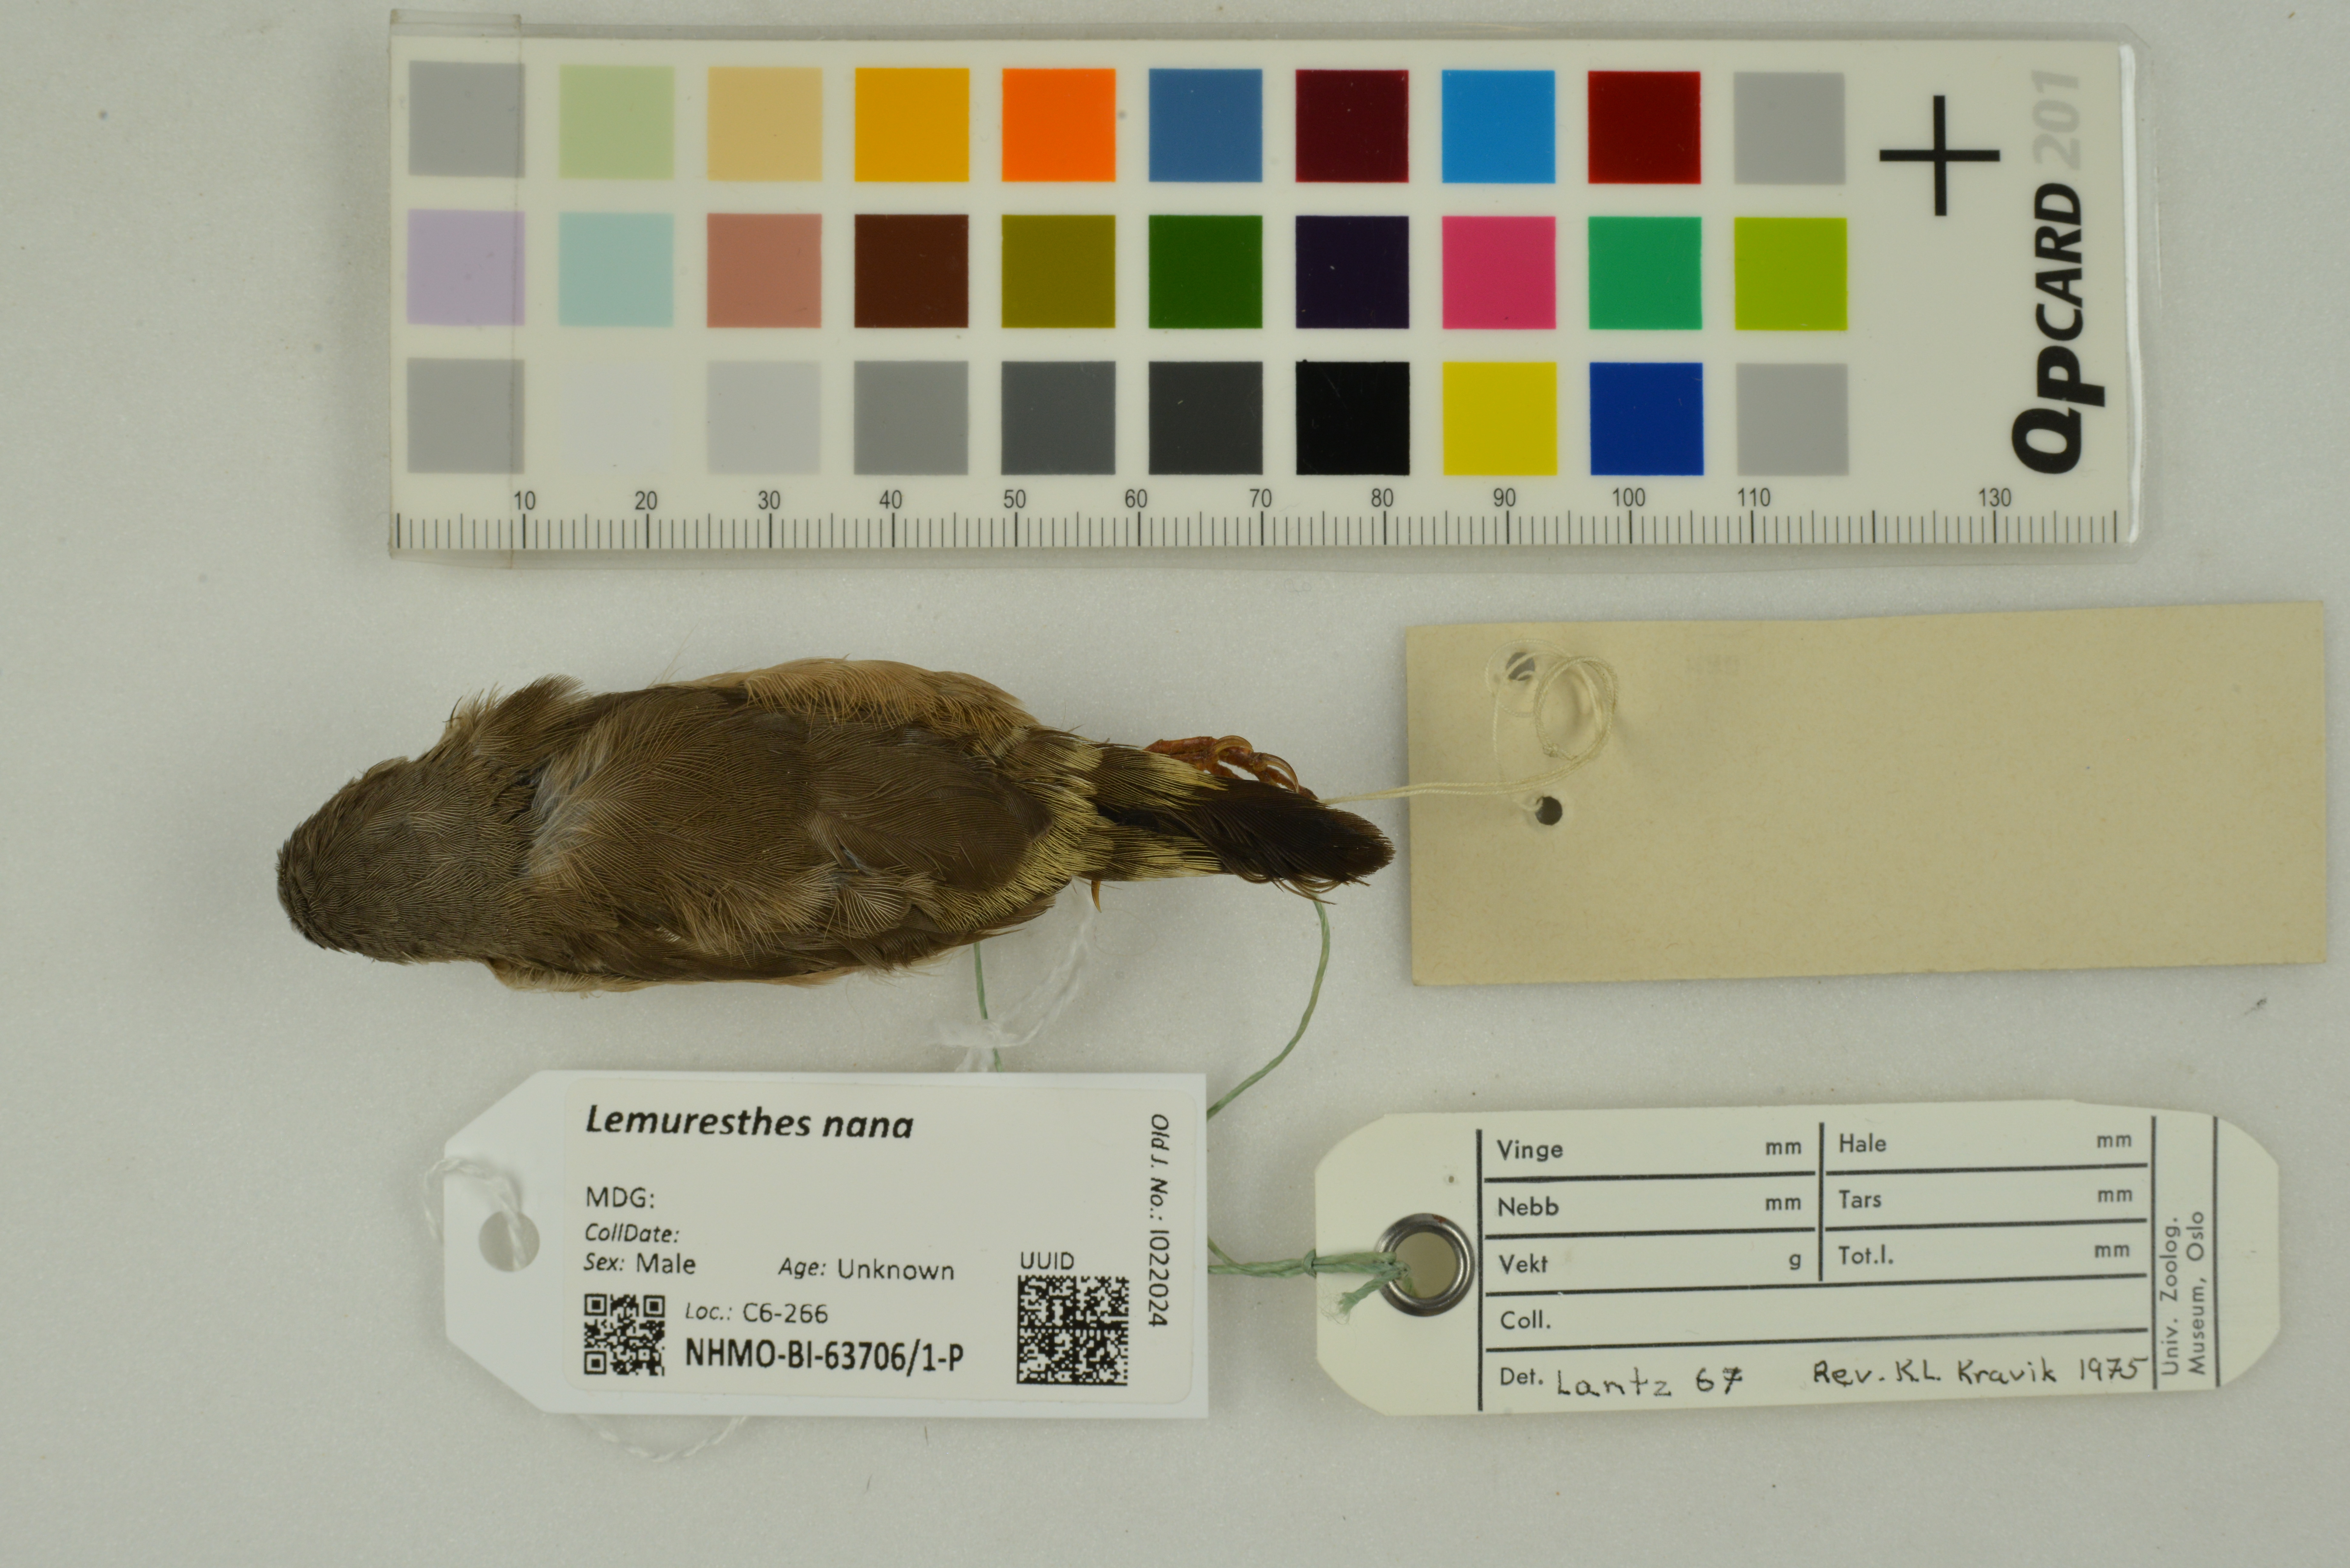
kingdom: Animalia
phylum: Chordata
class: Aves
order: Passeriformes
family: Estrildidae
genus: Lemuresthes
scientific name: Lemuresthes nana
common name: Madagascar mannikin
